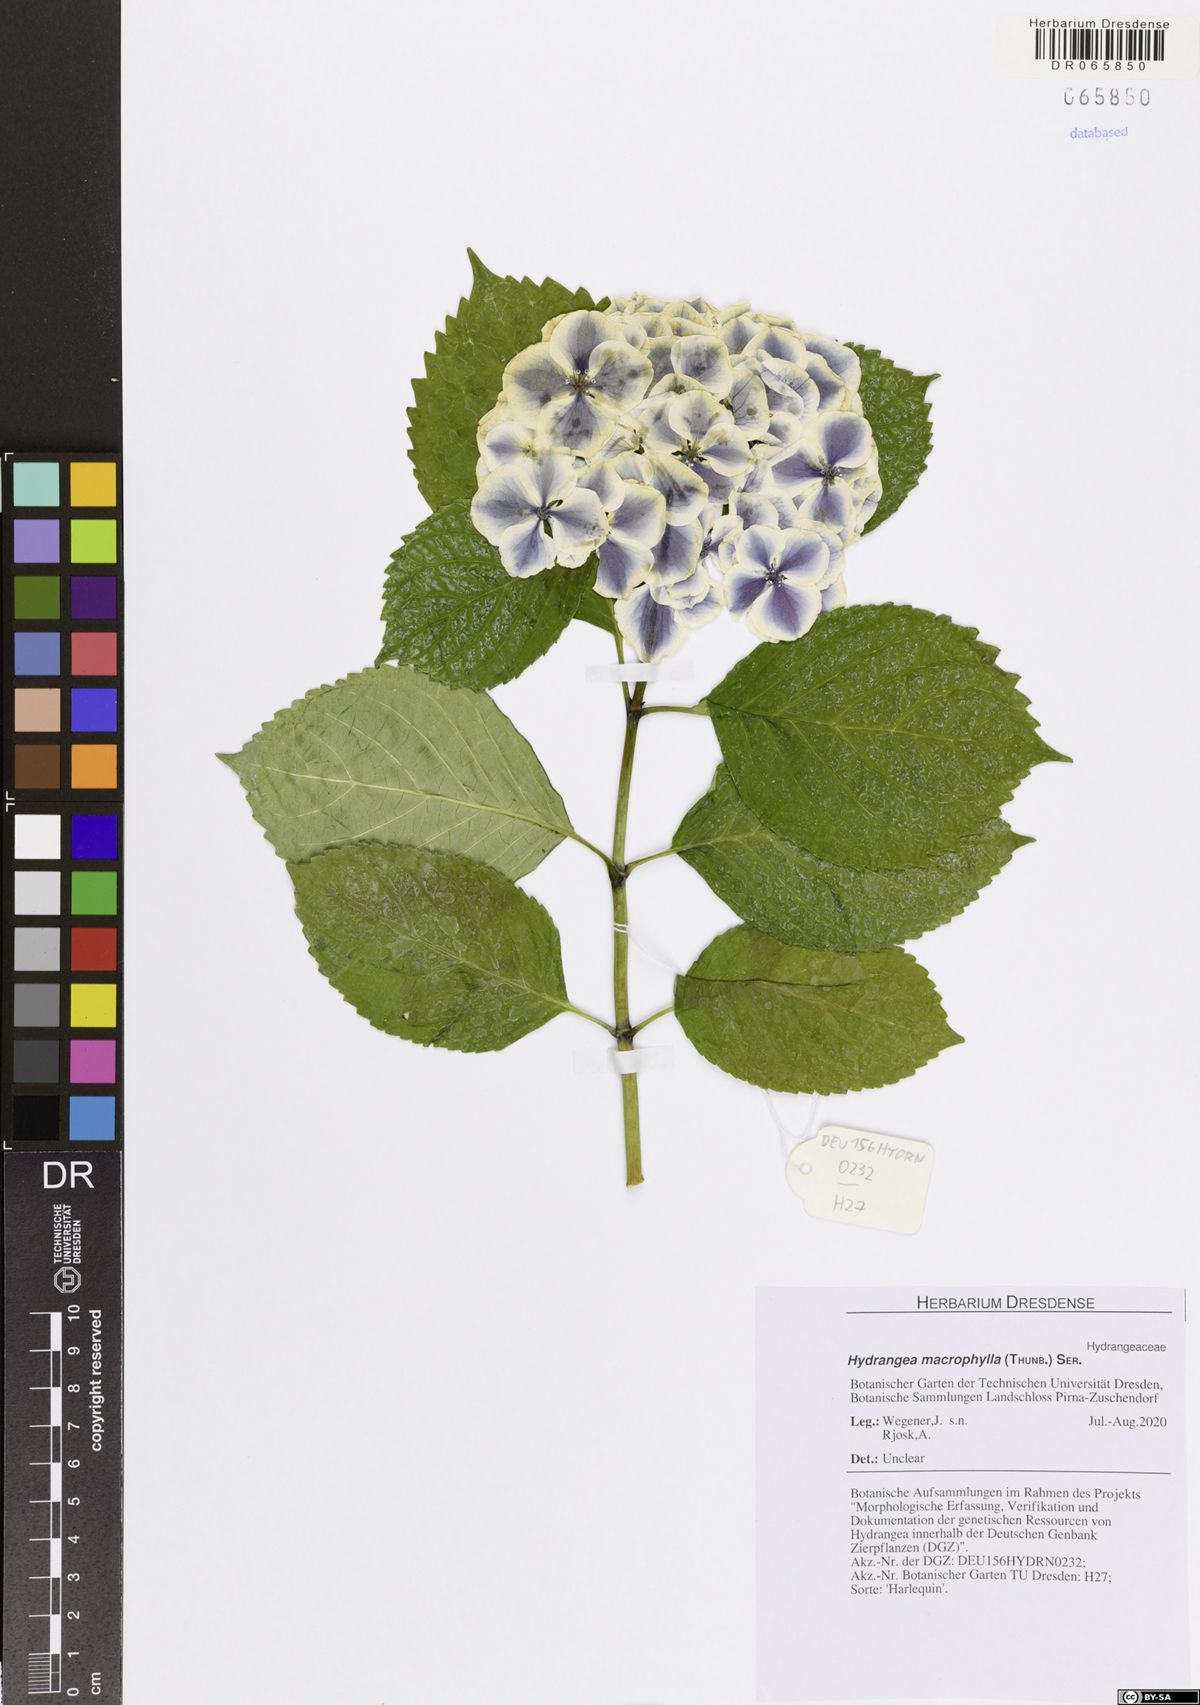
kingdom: Plantae
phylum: Tracheophyta
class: Magnoliopsida
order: Cornales
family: Hydrangeaceae
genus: Hydrangea
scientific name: Hydrangea macrophylla
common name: Hydrangea
